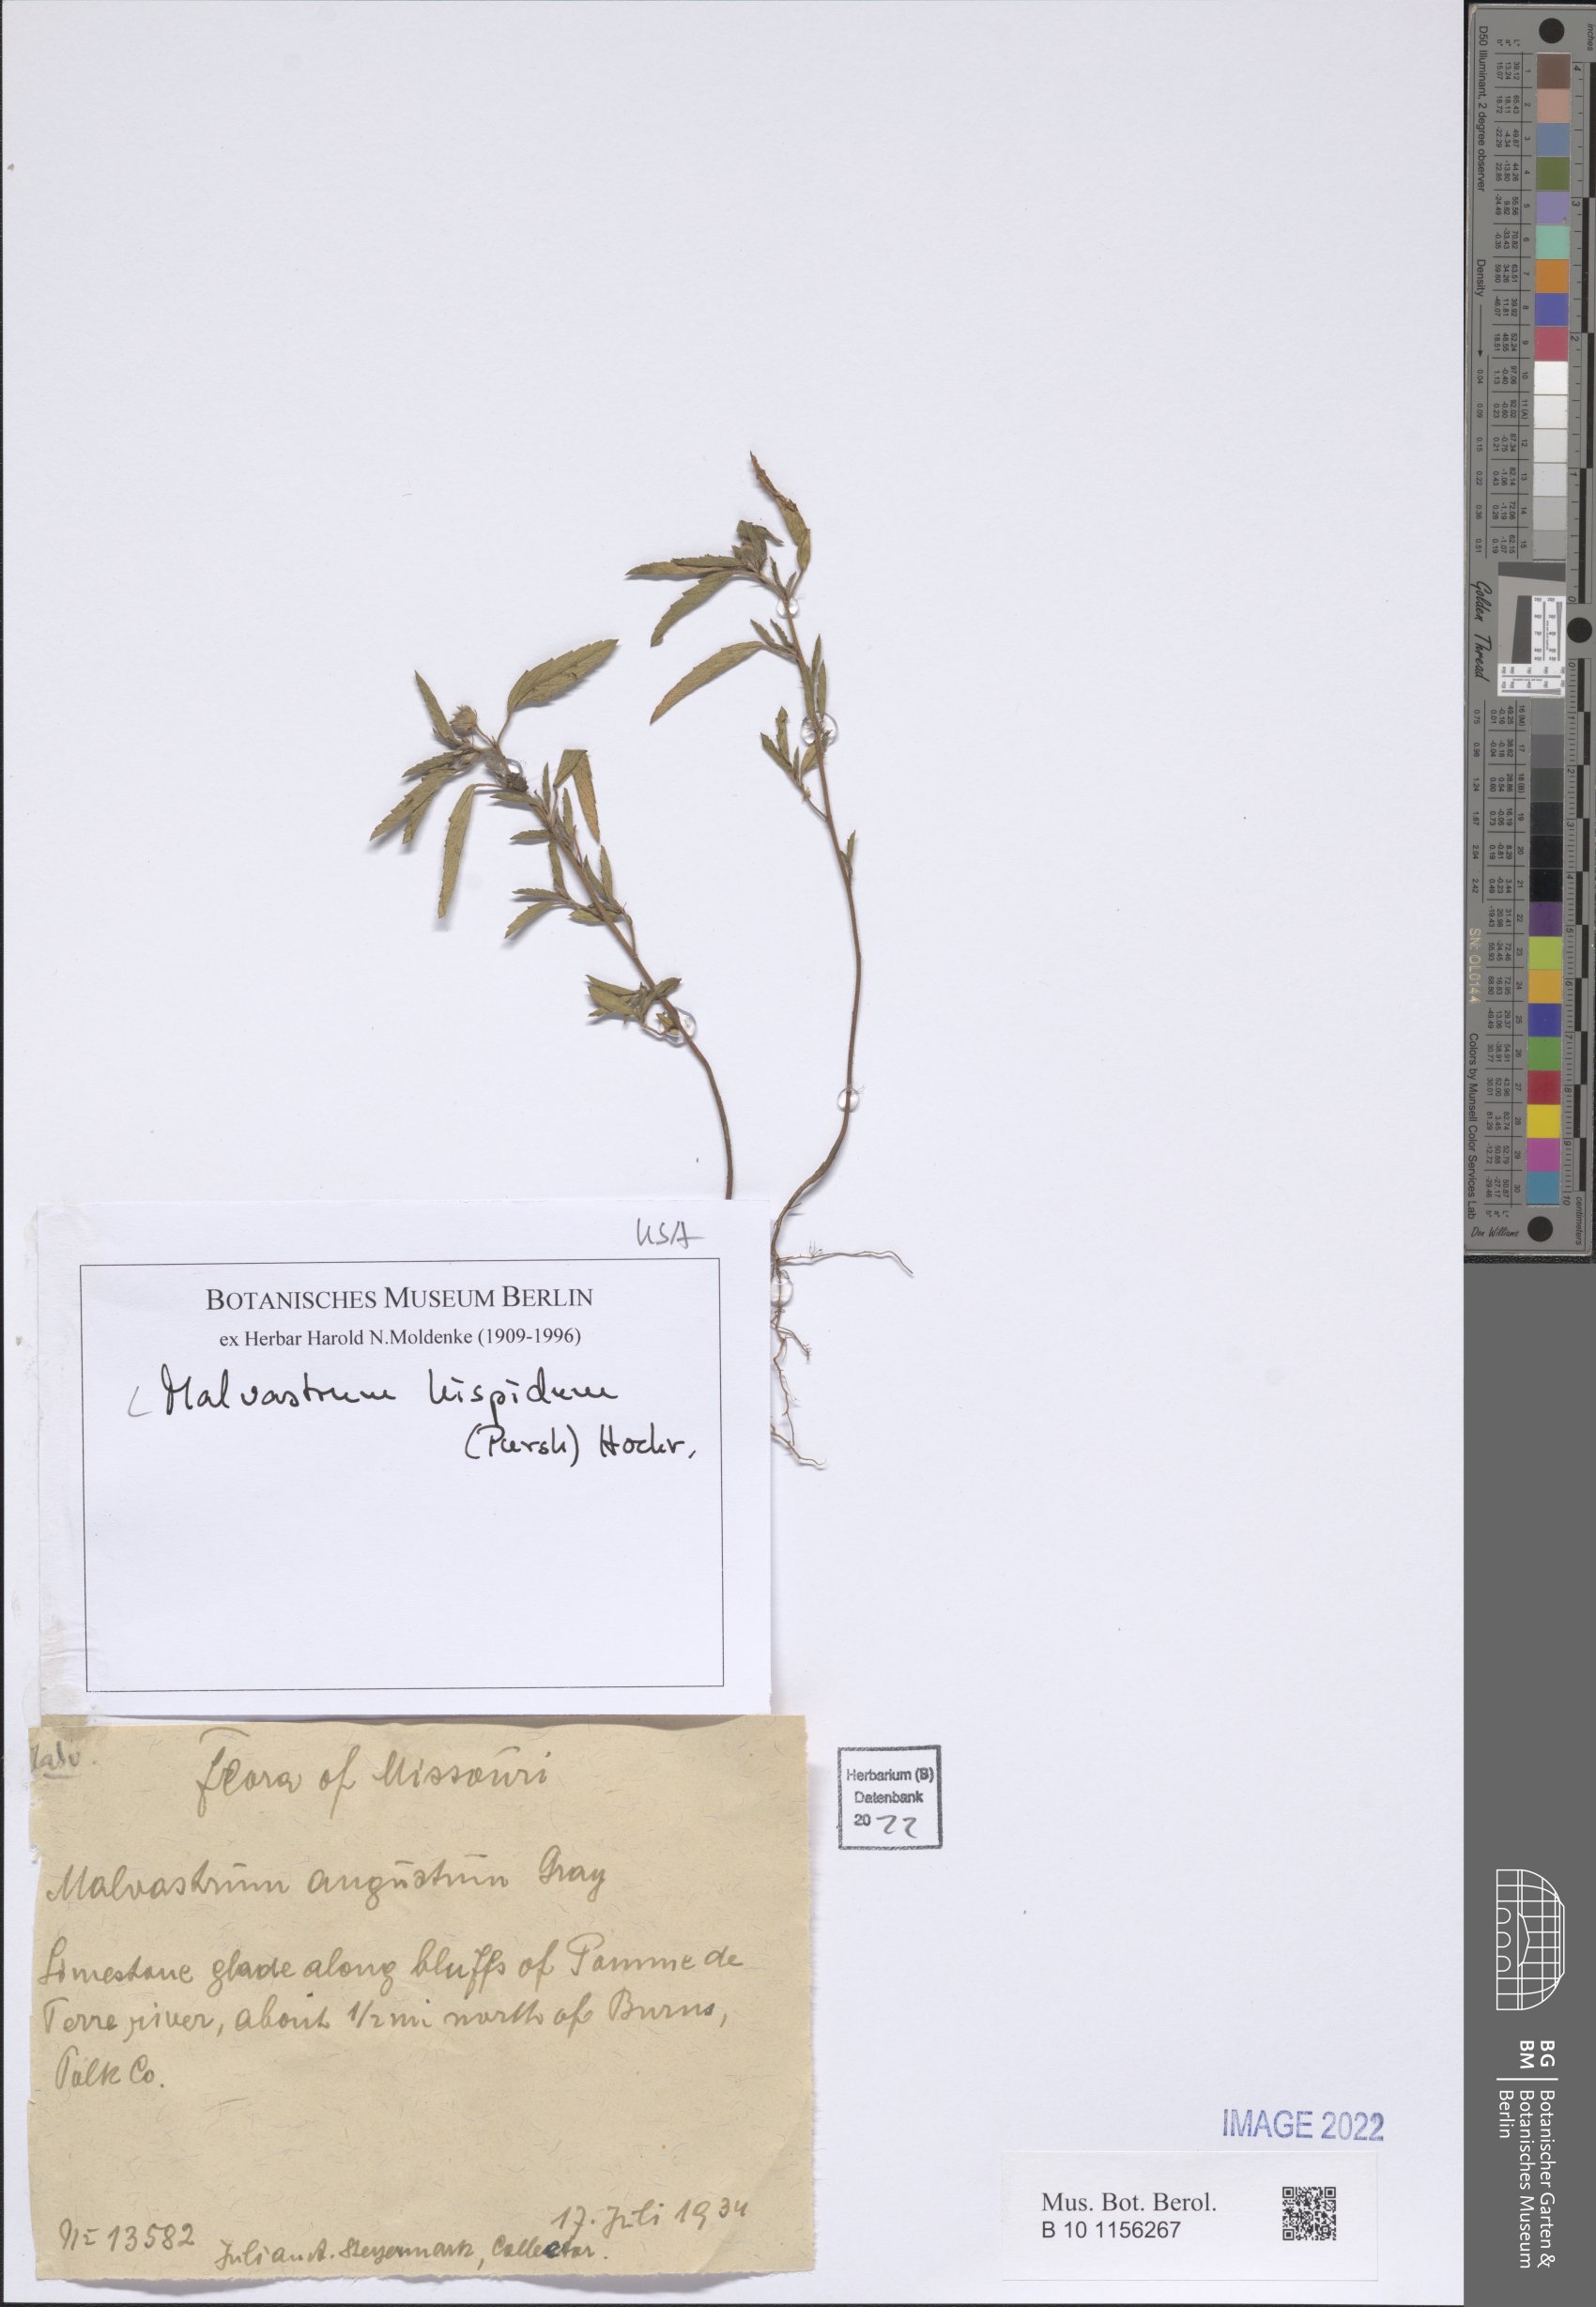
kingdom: Plantae
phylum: Tracheophyta
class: Magnoliopsida
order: Malvales
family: Malvaceae
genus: Malvastrum
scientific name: Malvastrum hispidum
